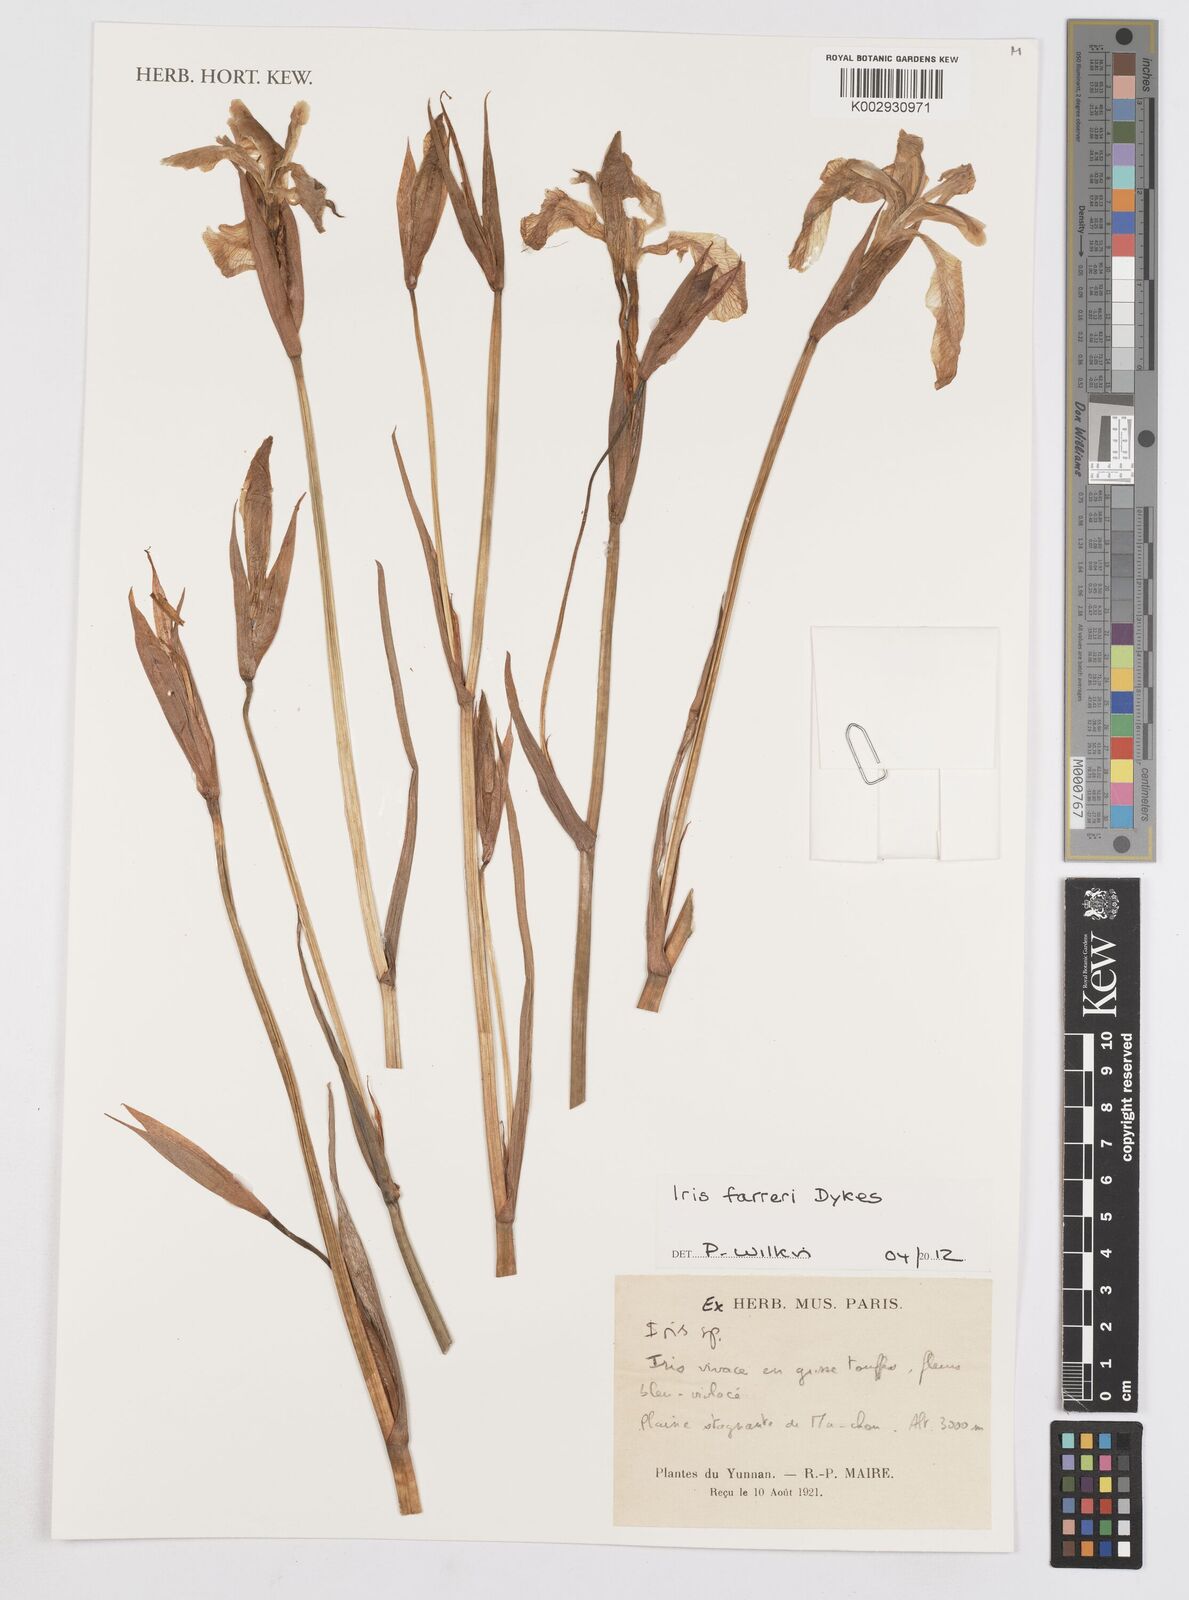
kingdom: Plantae
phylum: Tracheophyta
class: Liliopsida
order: Asparagales
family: Iridaceae
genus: Iris
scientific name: Iris farreri
